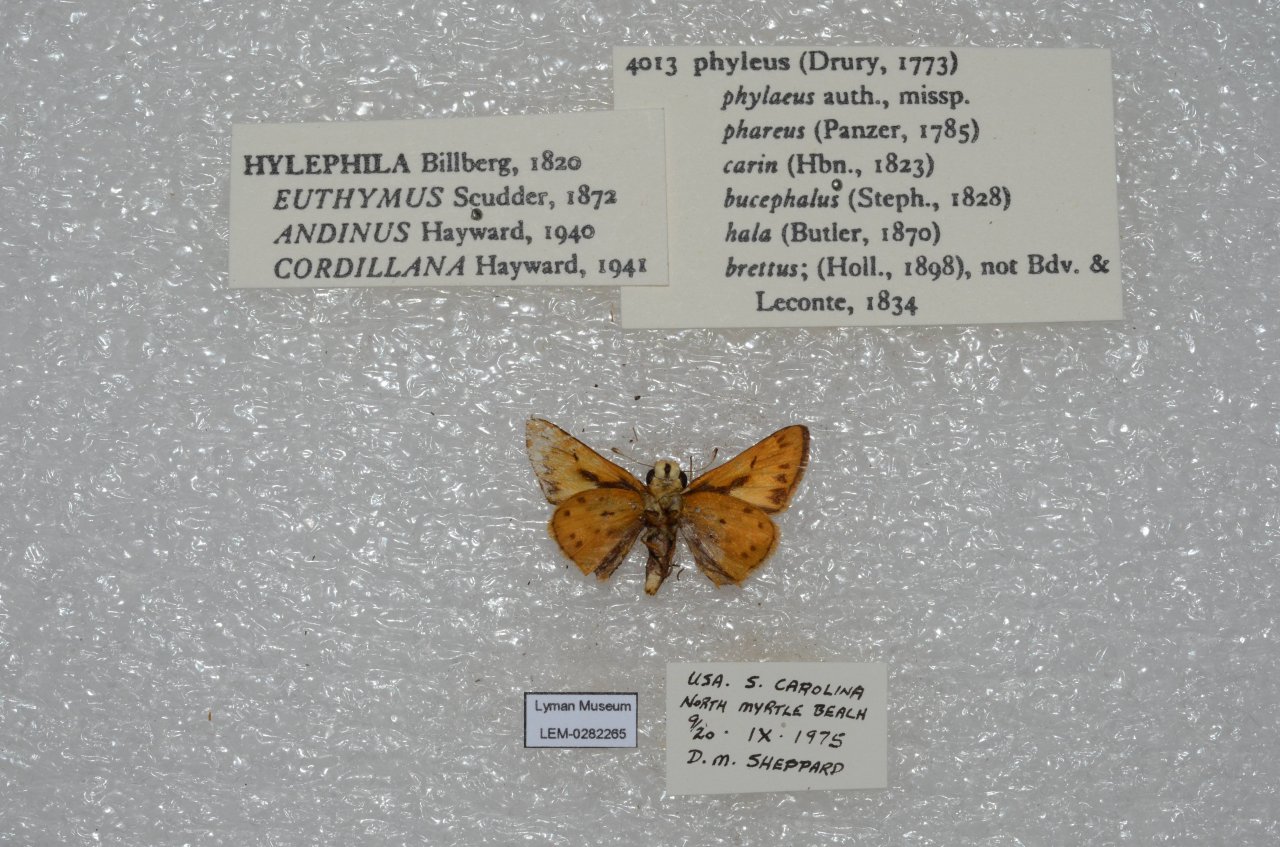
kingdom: Animalia
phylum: Arthropoda
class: Insecta
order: Lepidoptera
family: Hesperiidae
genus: Hylephila
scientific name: Hylephila phyleus
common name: Fiery Skipper
